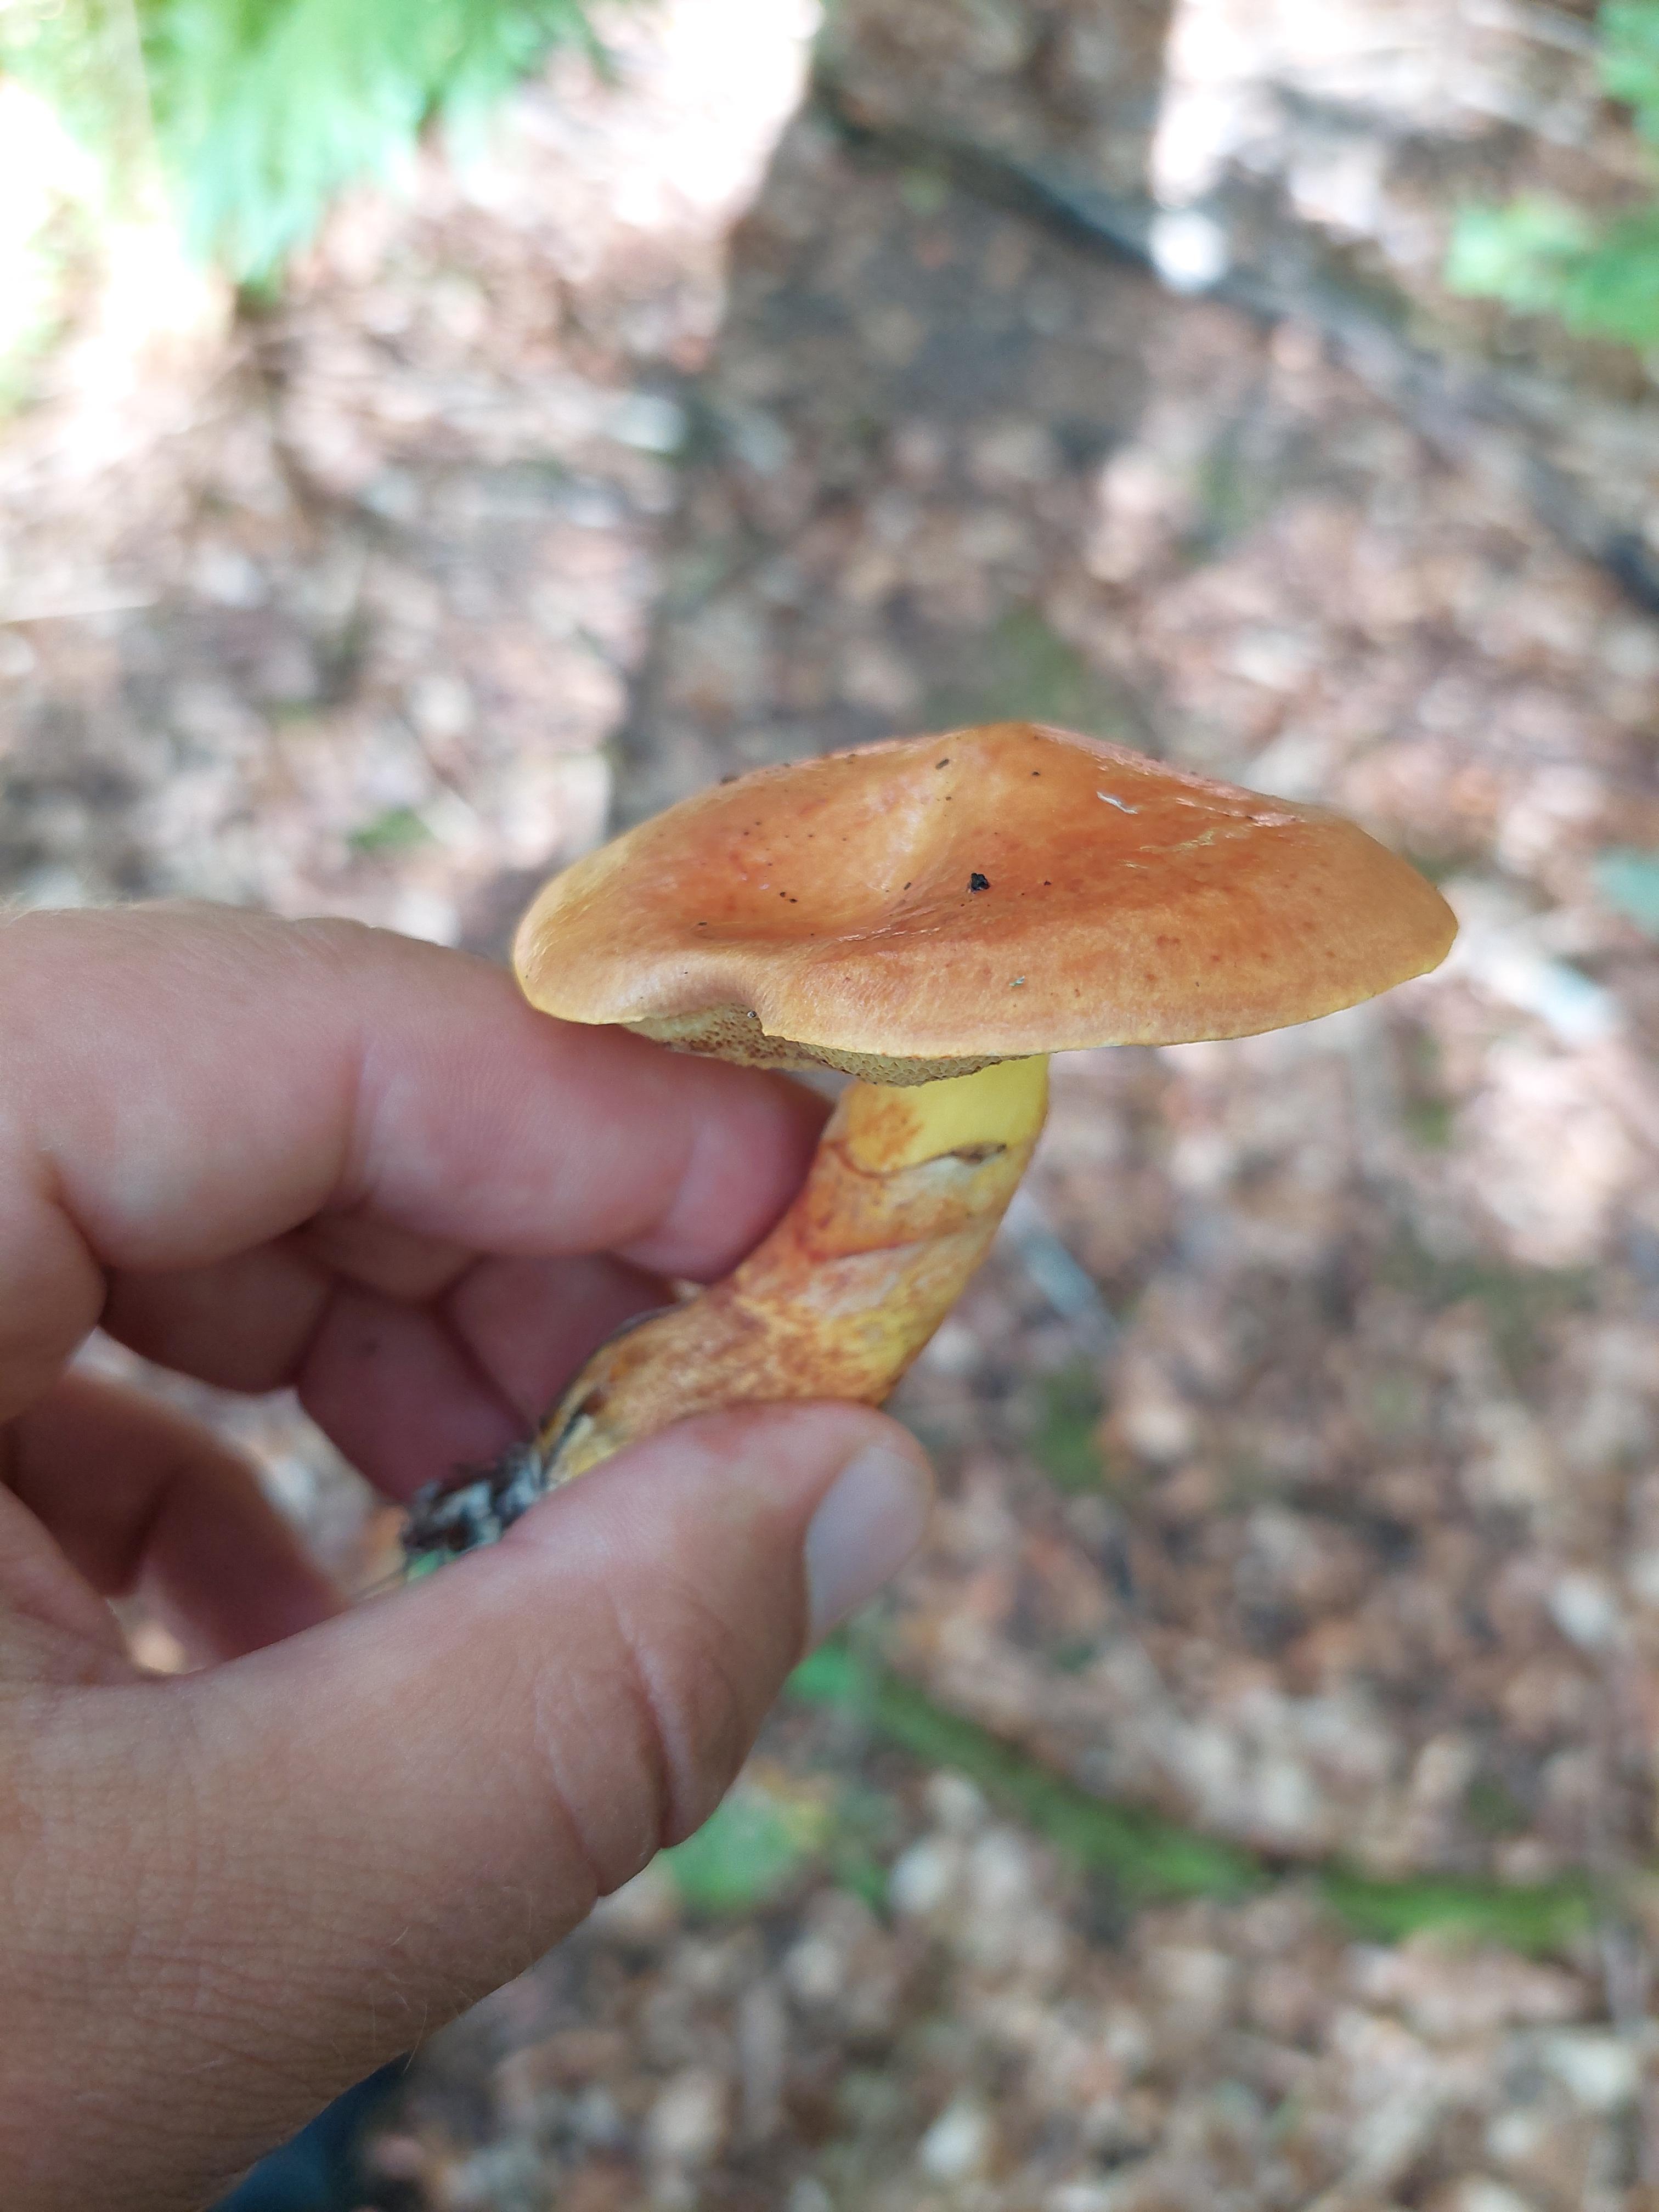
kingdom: Fungi
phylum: Basidiomycota
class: Agaricomycetes
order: Boletales
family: Suillaceae
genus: Suillus
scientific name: Suillus grevillei
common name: lærke-slimrørhat
